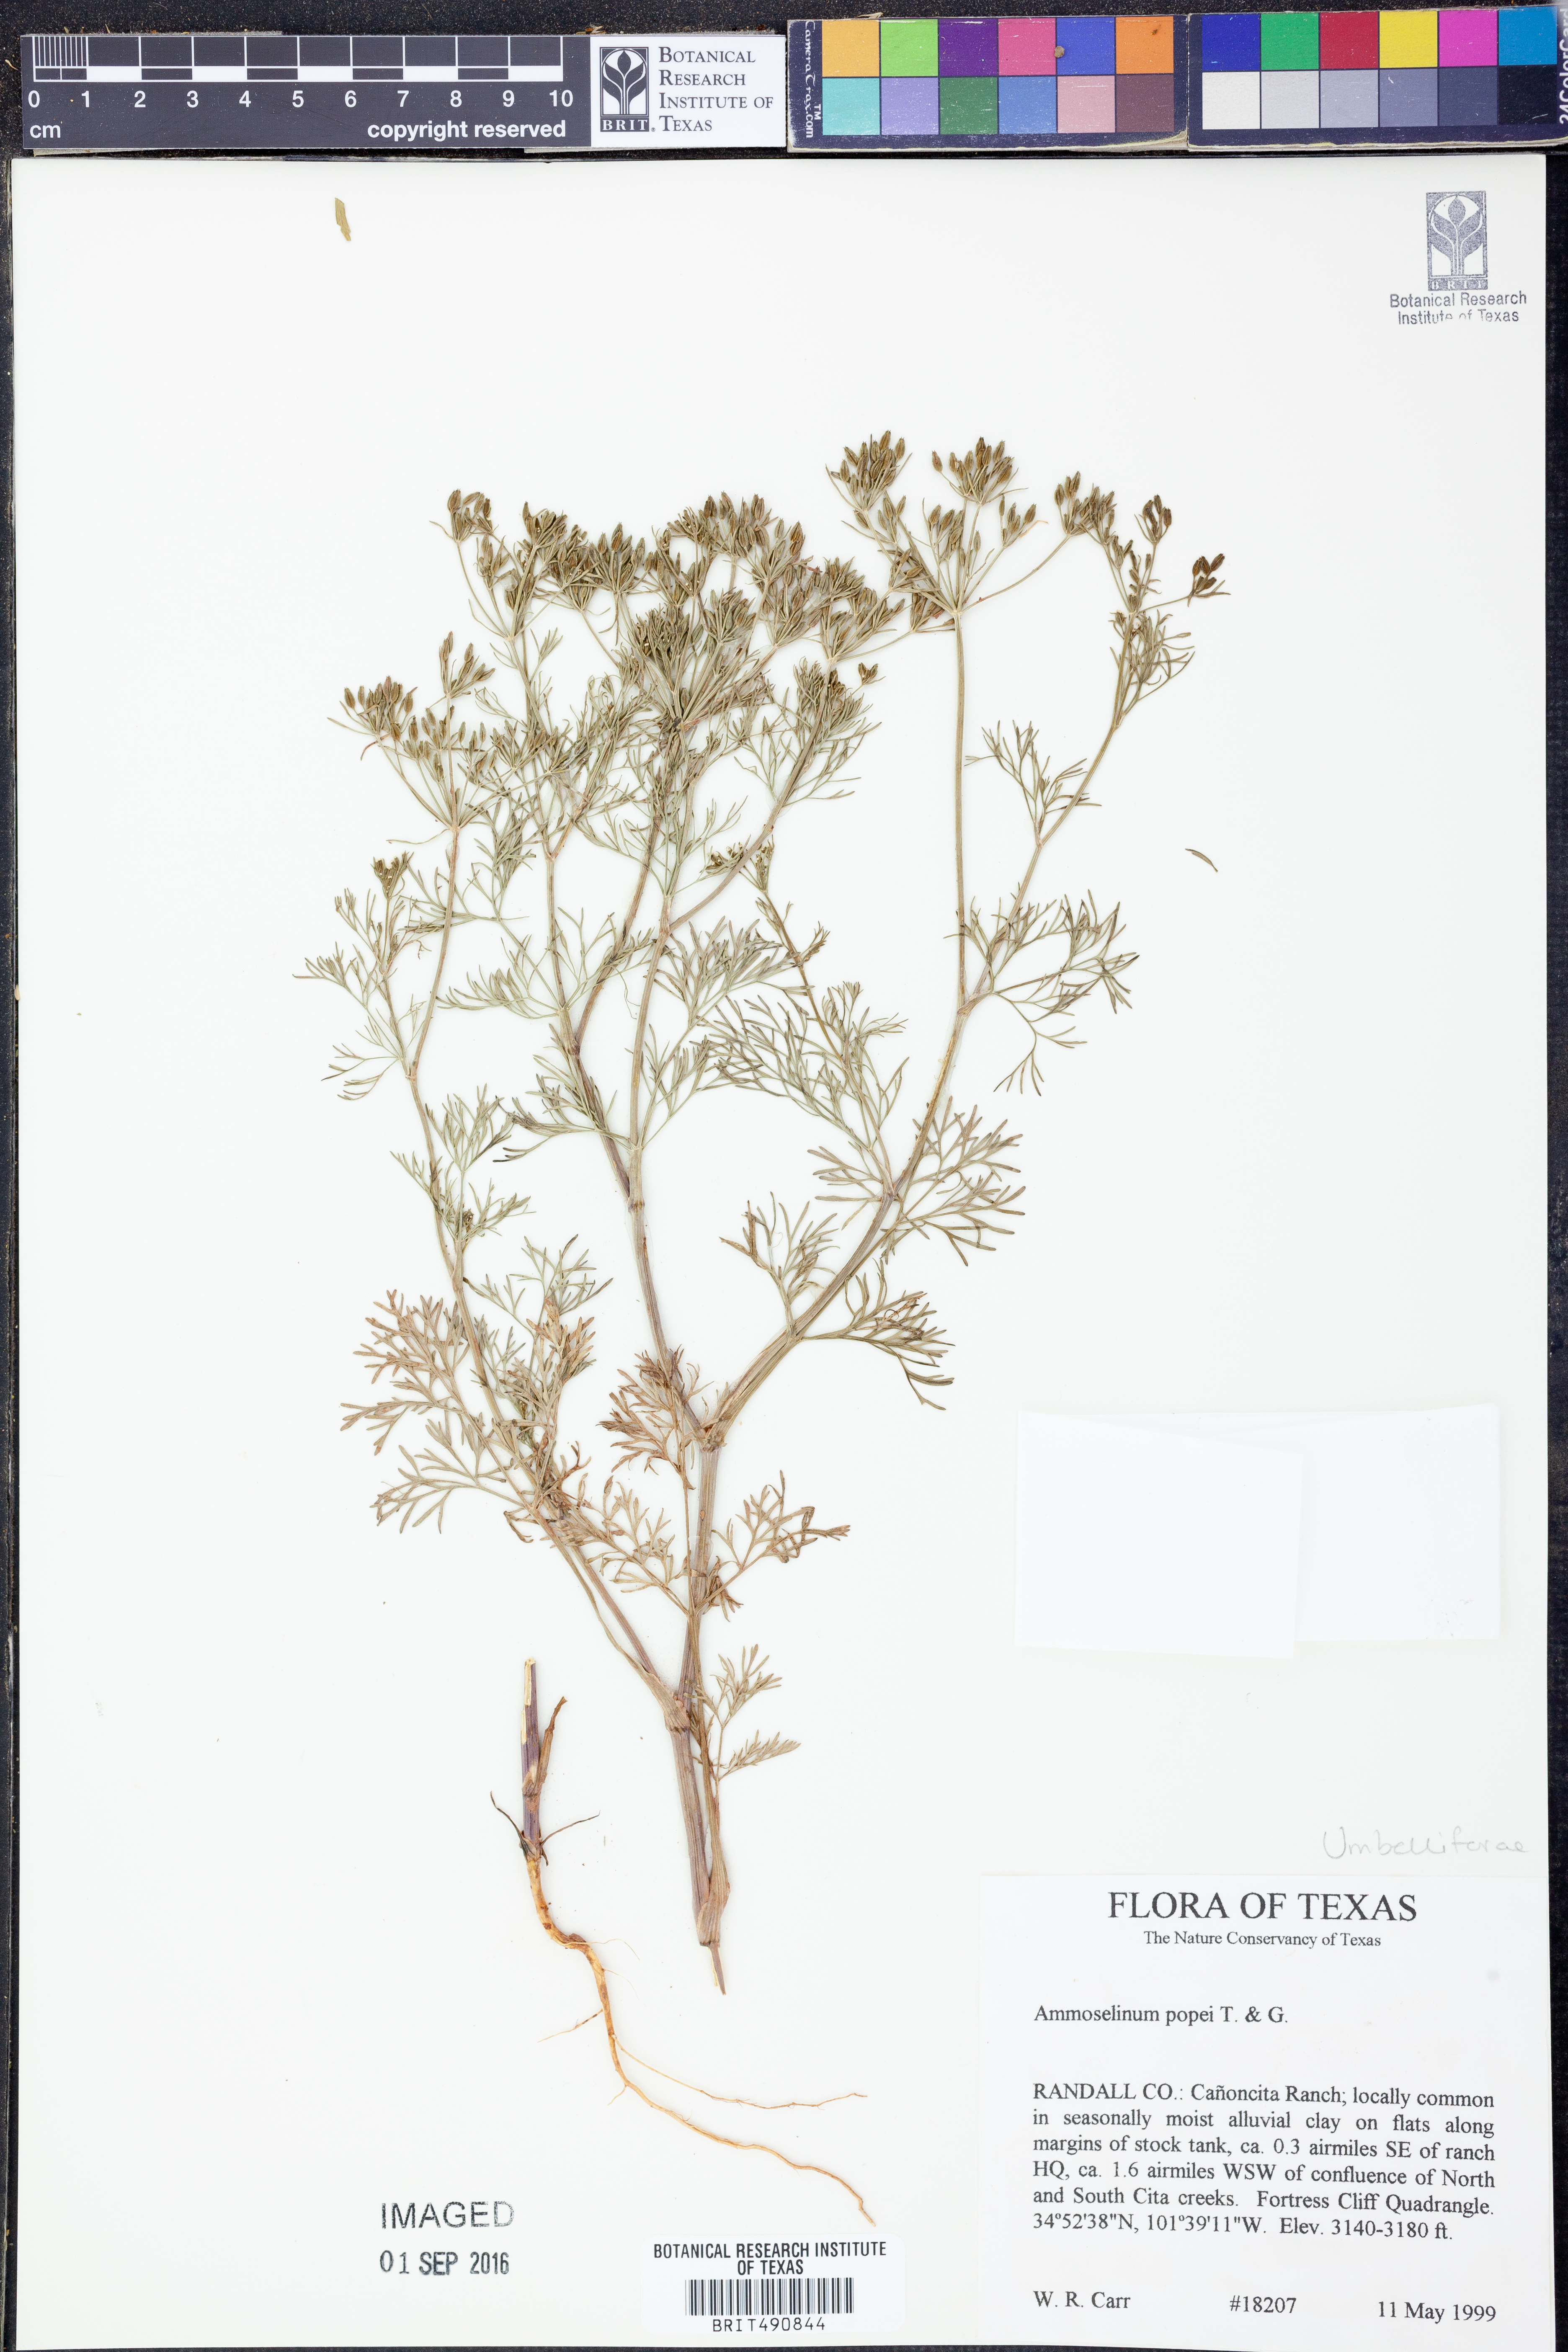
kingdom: Plantae
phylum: Tracheophyta
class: Magnoliopsida
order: Apiales
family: Apiaceae
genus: Ammoselinum
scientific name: Ammoselinum popei
